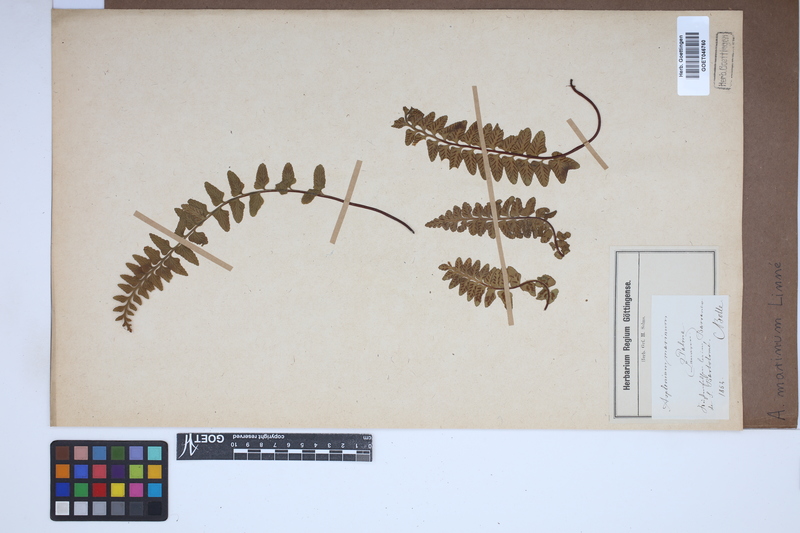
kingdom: Plantae
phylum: Tracheophyta
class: Polypodiopsida
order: Polypodiales
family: Aspleniaceae
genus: Asplenium
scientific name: Asplenium marinum
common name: Sea spleenwort
